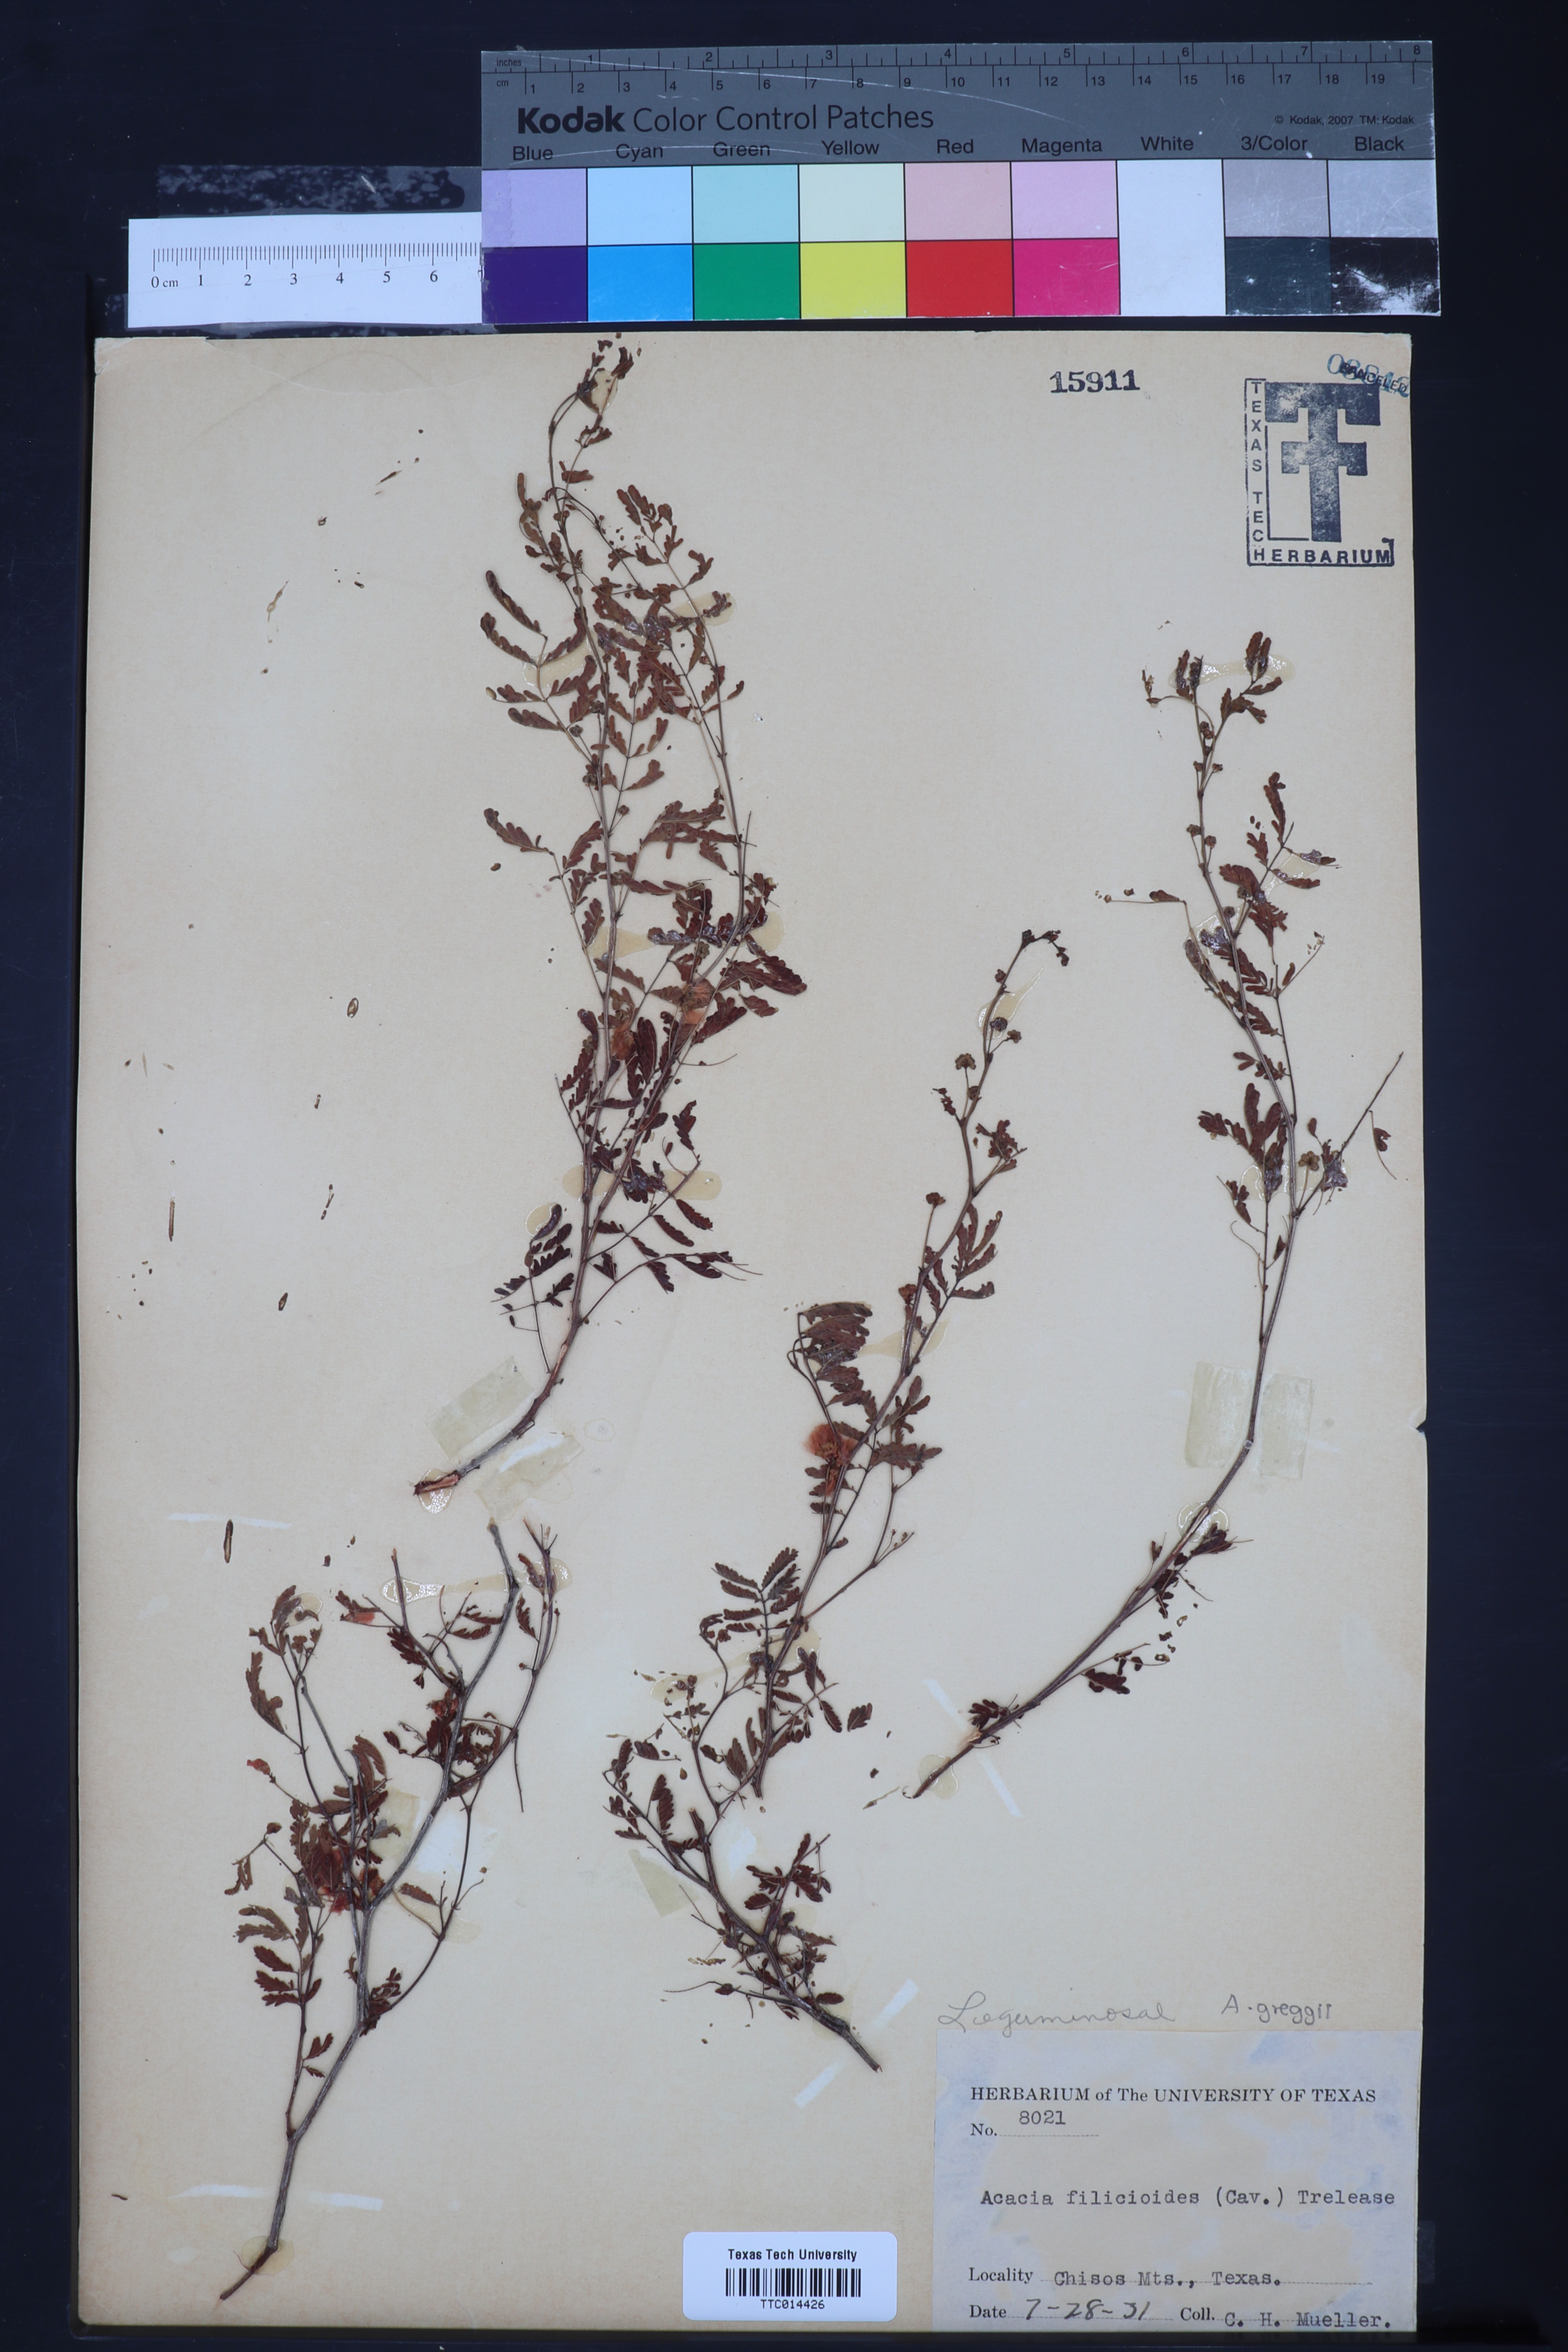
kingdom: Plantae
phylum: Tracheophyta
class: Magnoliopsida
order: Fabales
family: Fabaceae
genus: Acaciella
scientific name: Acaciella angustissima
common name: Prairie acacia
